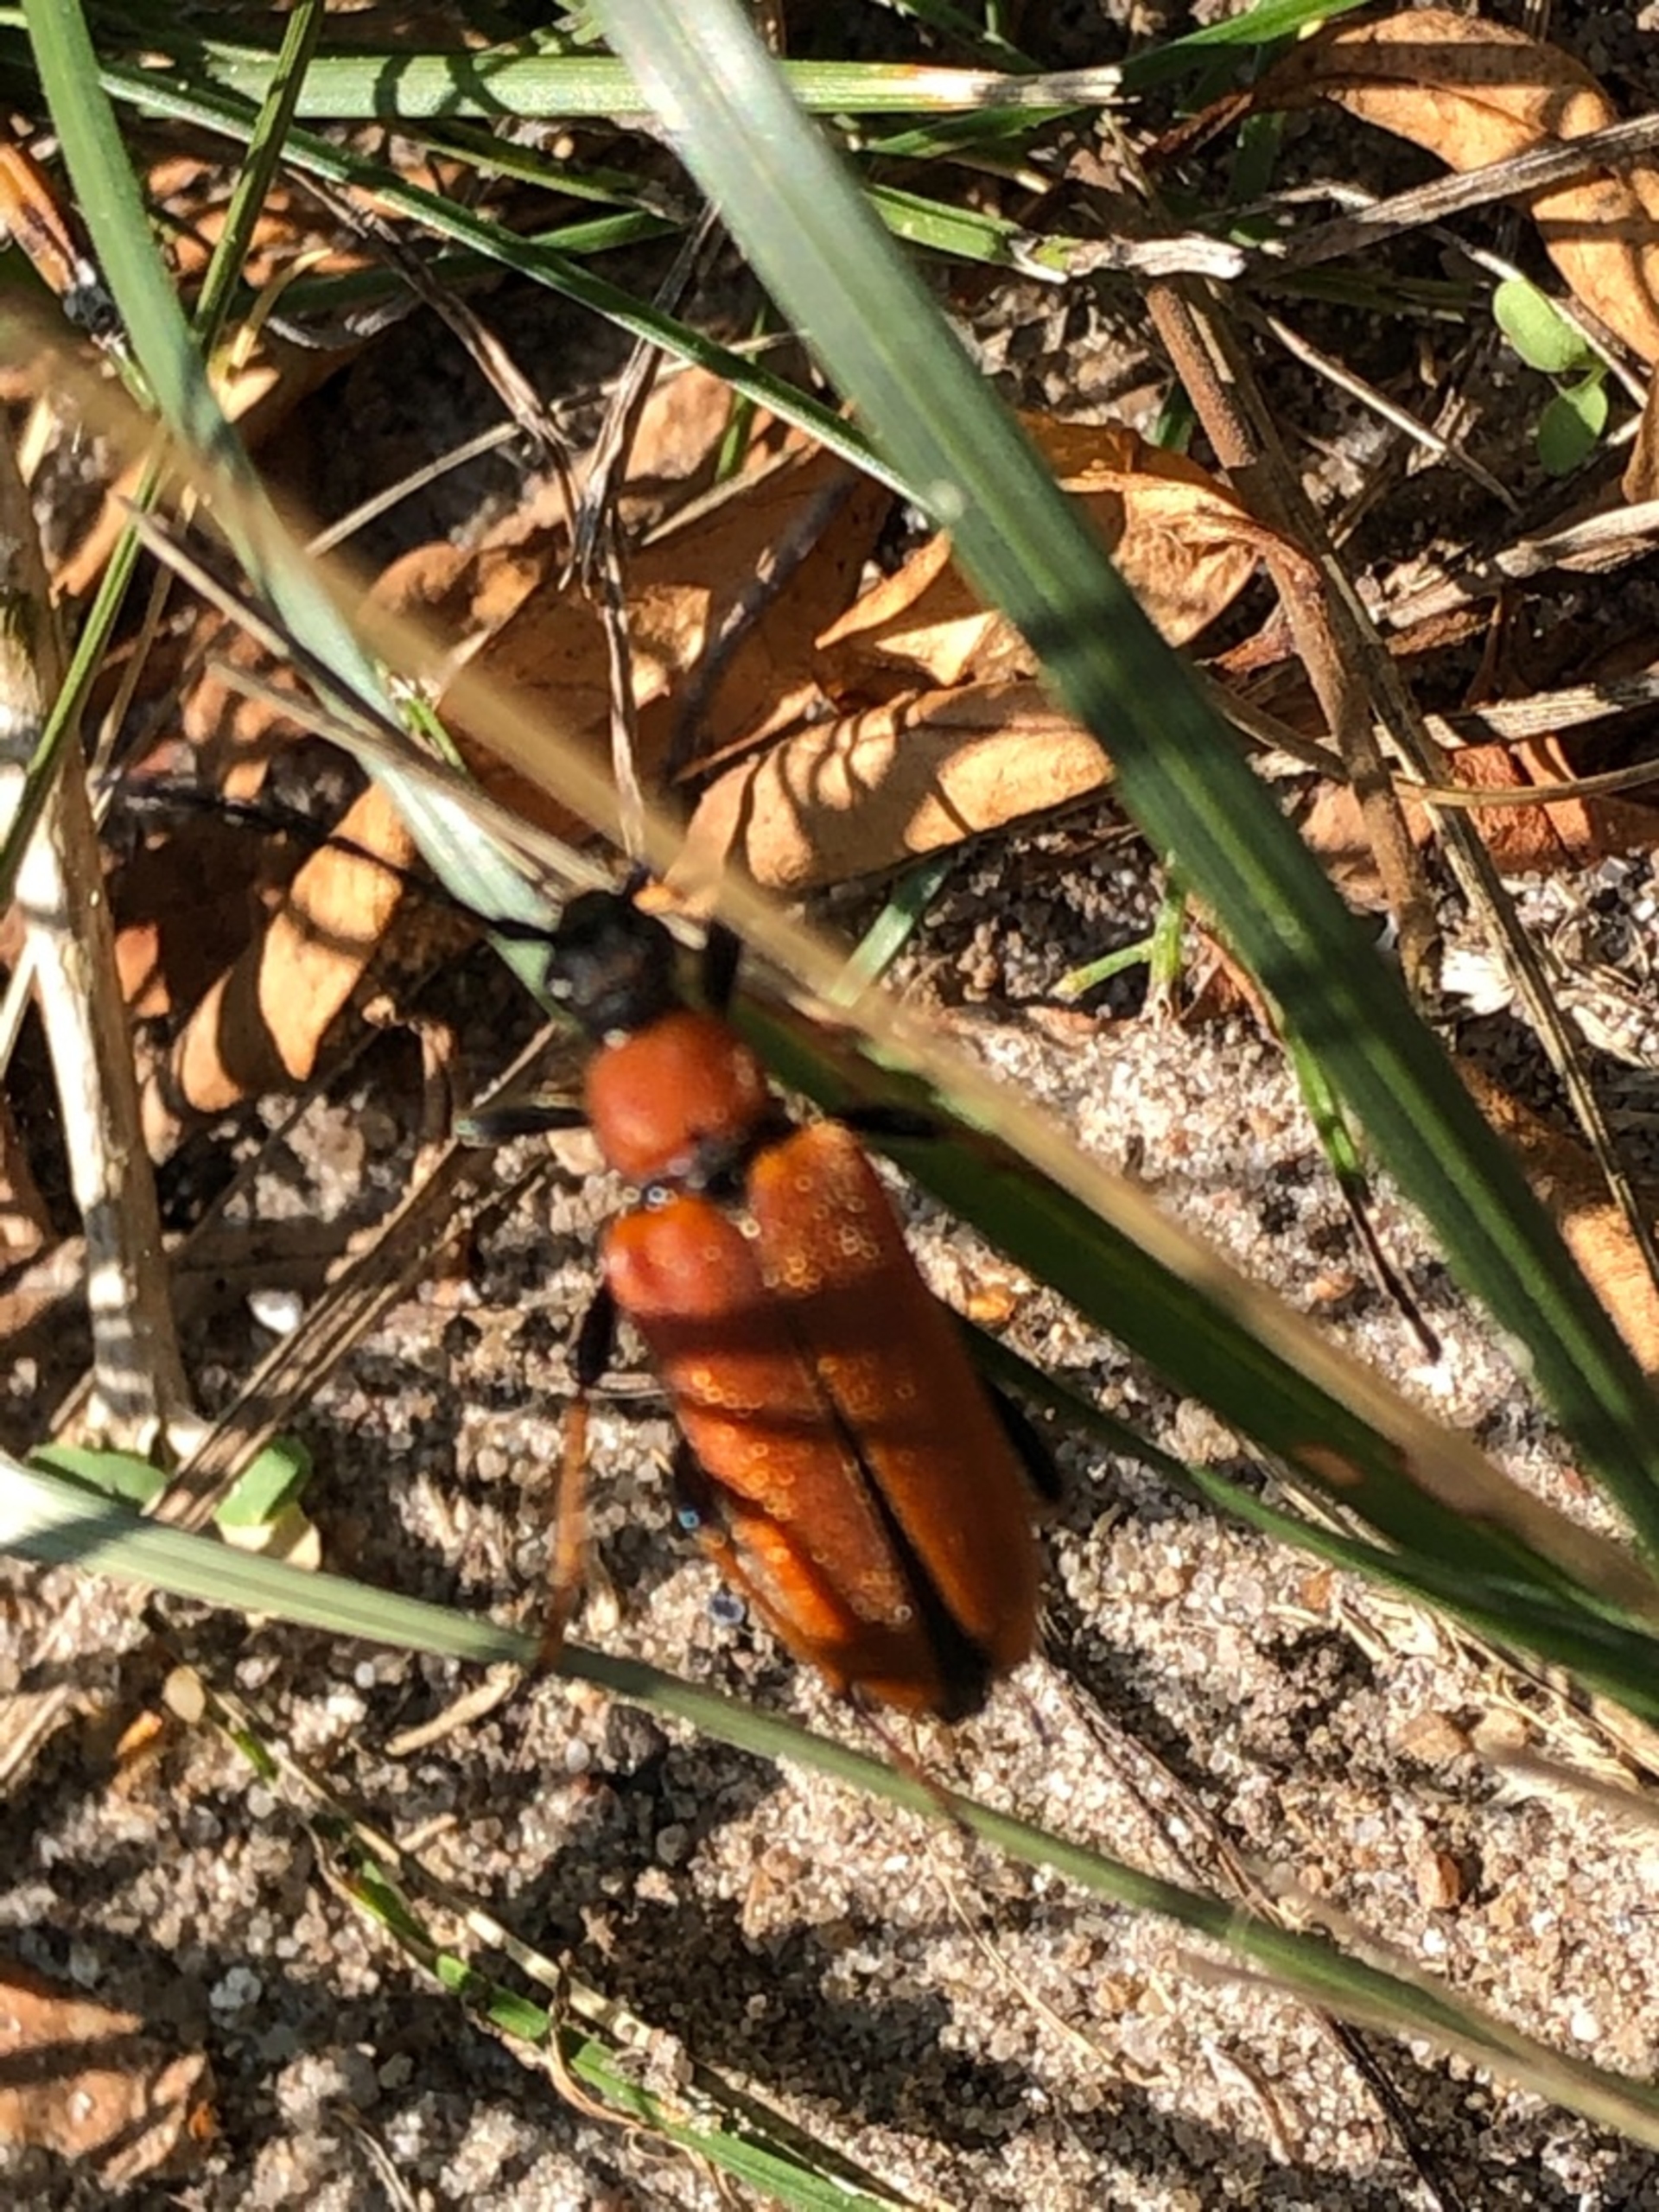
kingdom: Animalia
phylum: Arthropoda
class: Insecta
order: Coleoptera
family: Cerambycidae
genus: Stictoleptura
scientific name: Stictoleptura rubra
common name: Rød blomsterbuk
